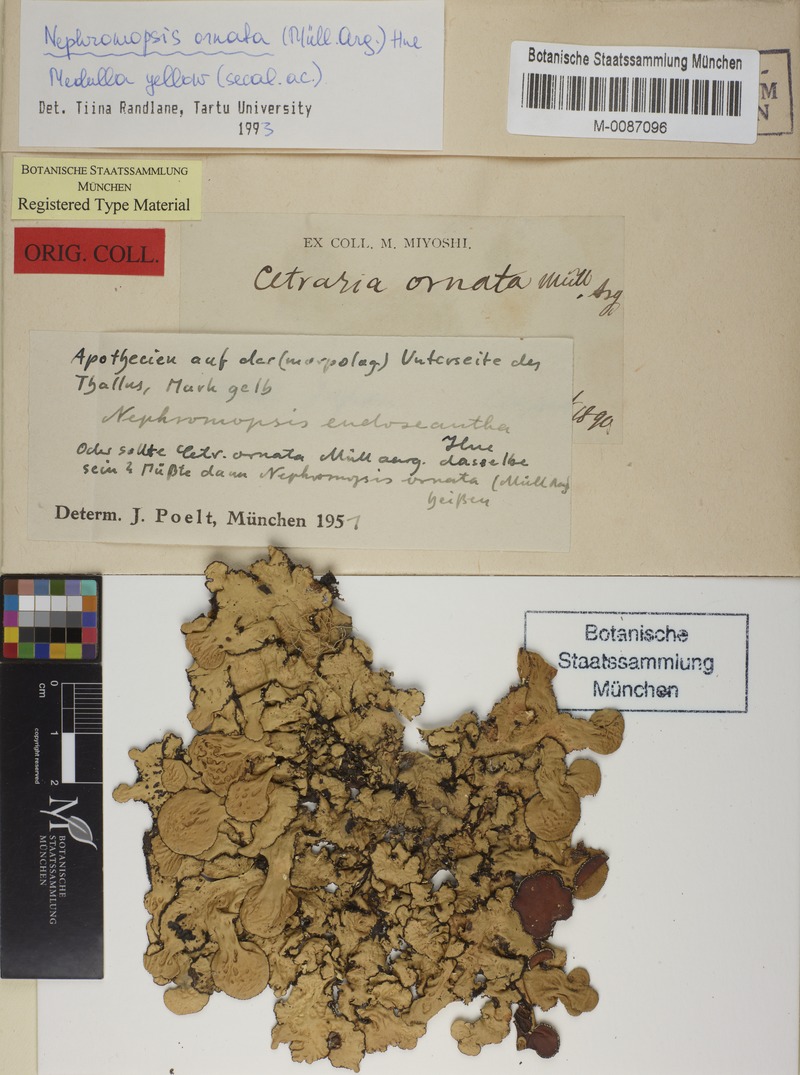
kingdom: Fungi
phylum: Ascomycota
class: Lecanoromycetes
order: Lecanorales
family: Parmeliaceae
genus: Nephromopsis
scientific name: Nephromopsis ornata
